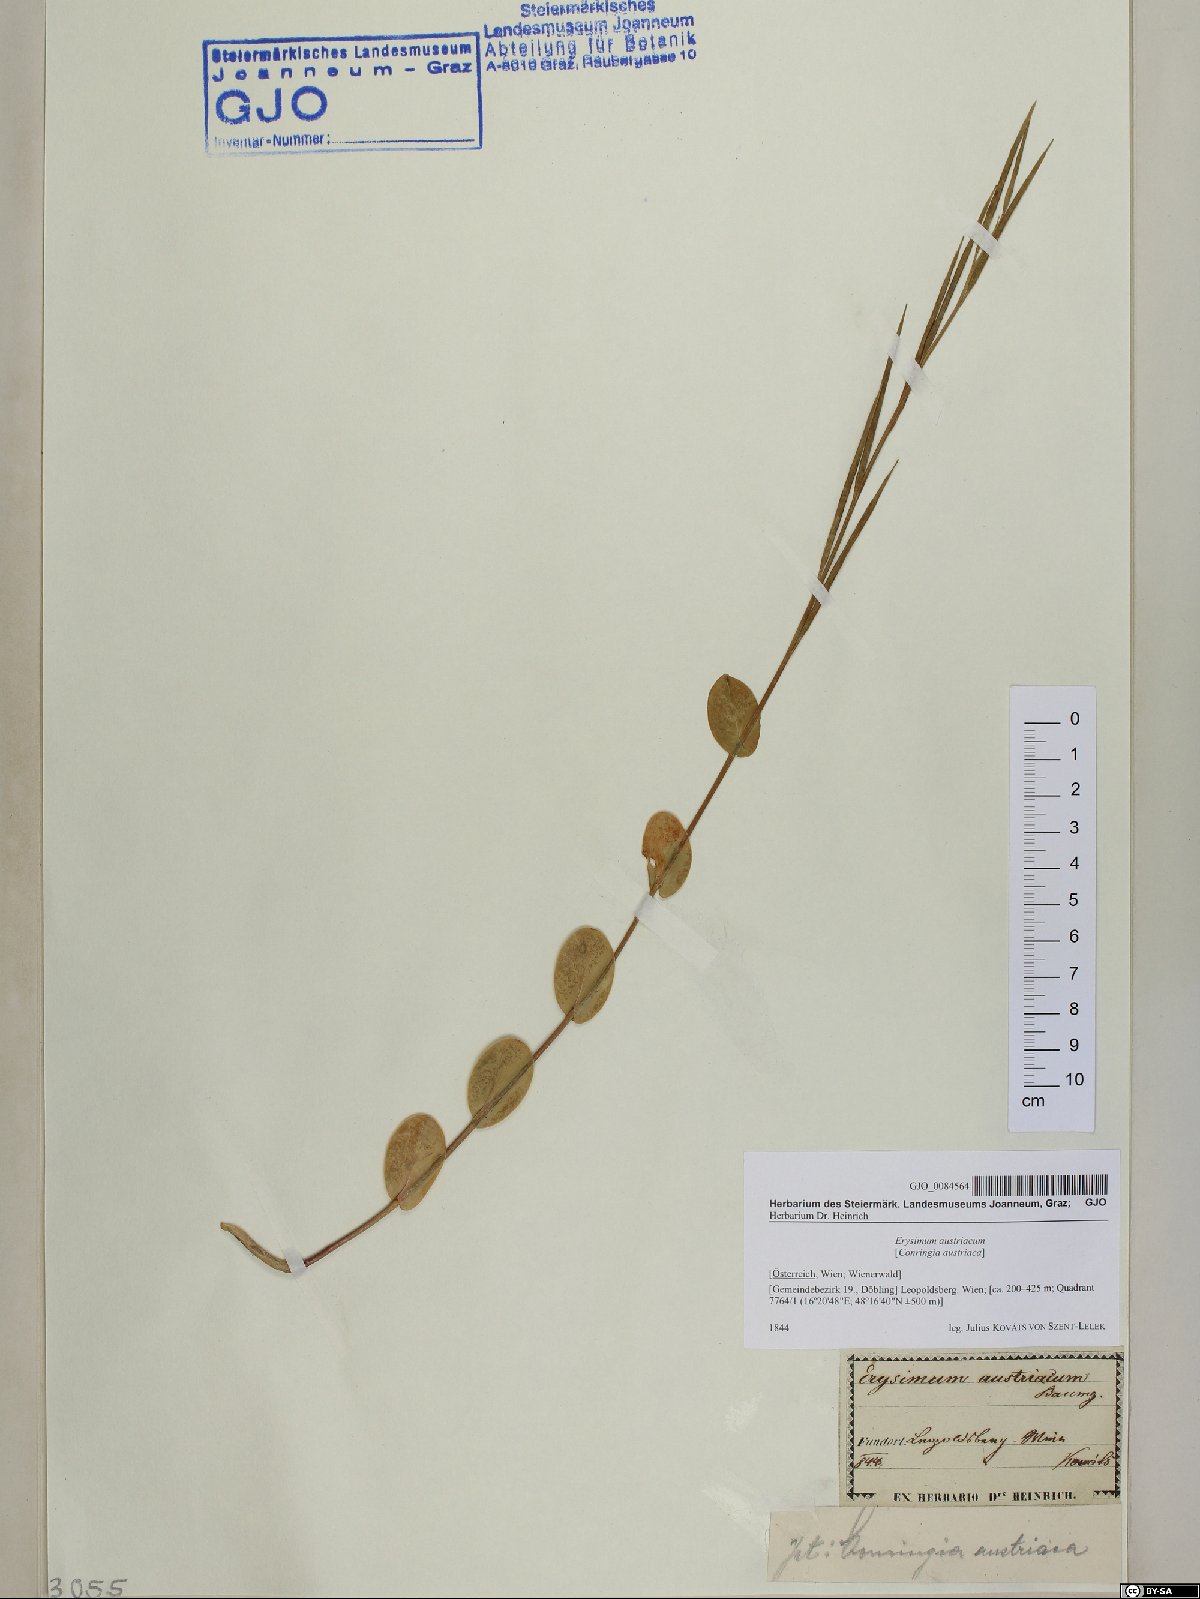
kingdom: Plantae
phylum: Tracheophyta
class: Magnoliopsida
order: Brassicales
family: Brassicaceae
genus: Conringia
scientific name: Conringia austriaca
